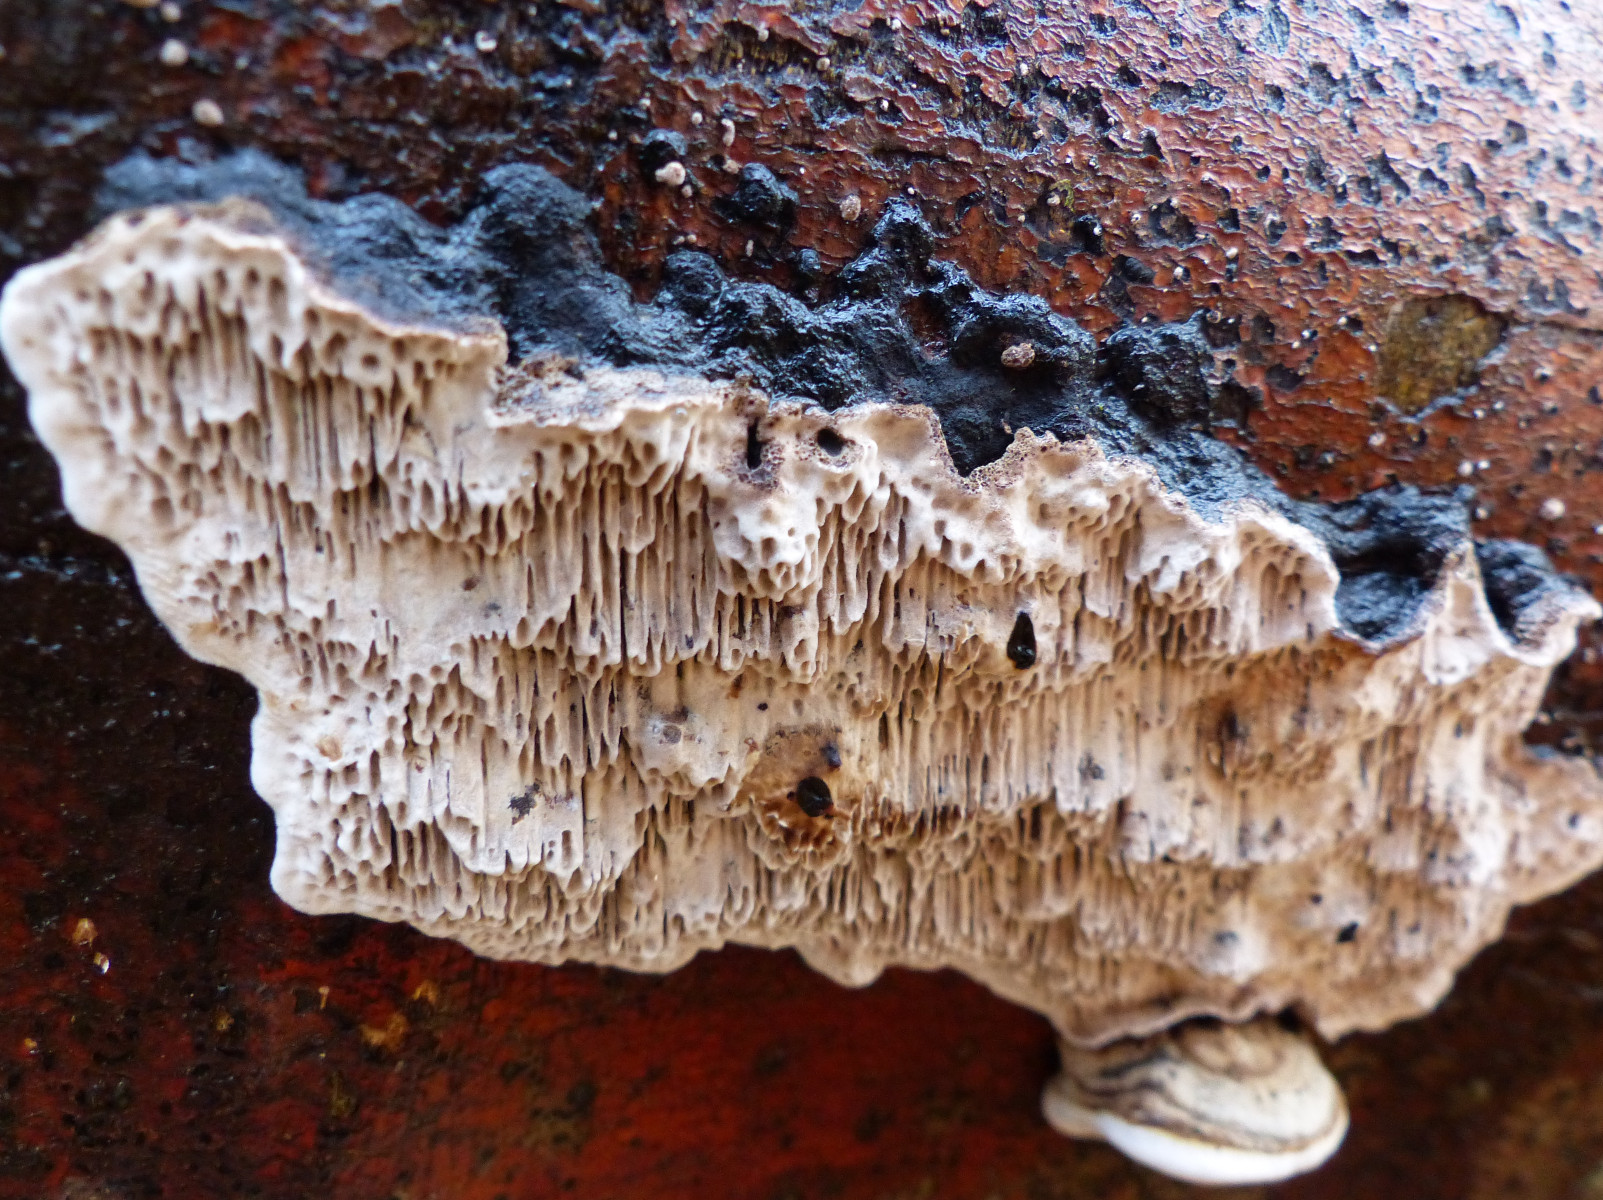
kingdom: Fungi
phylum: Basidiomycota
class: Agaricomycetes
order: Polyporales
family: Polyporaceae
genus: Podofomes
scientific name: Podofomes mollis
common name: blød begporesvamp
